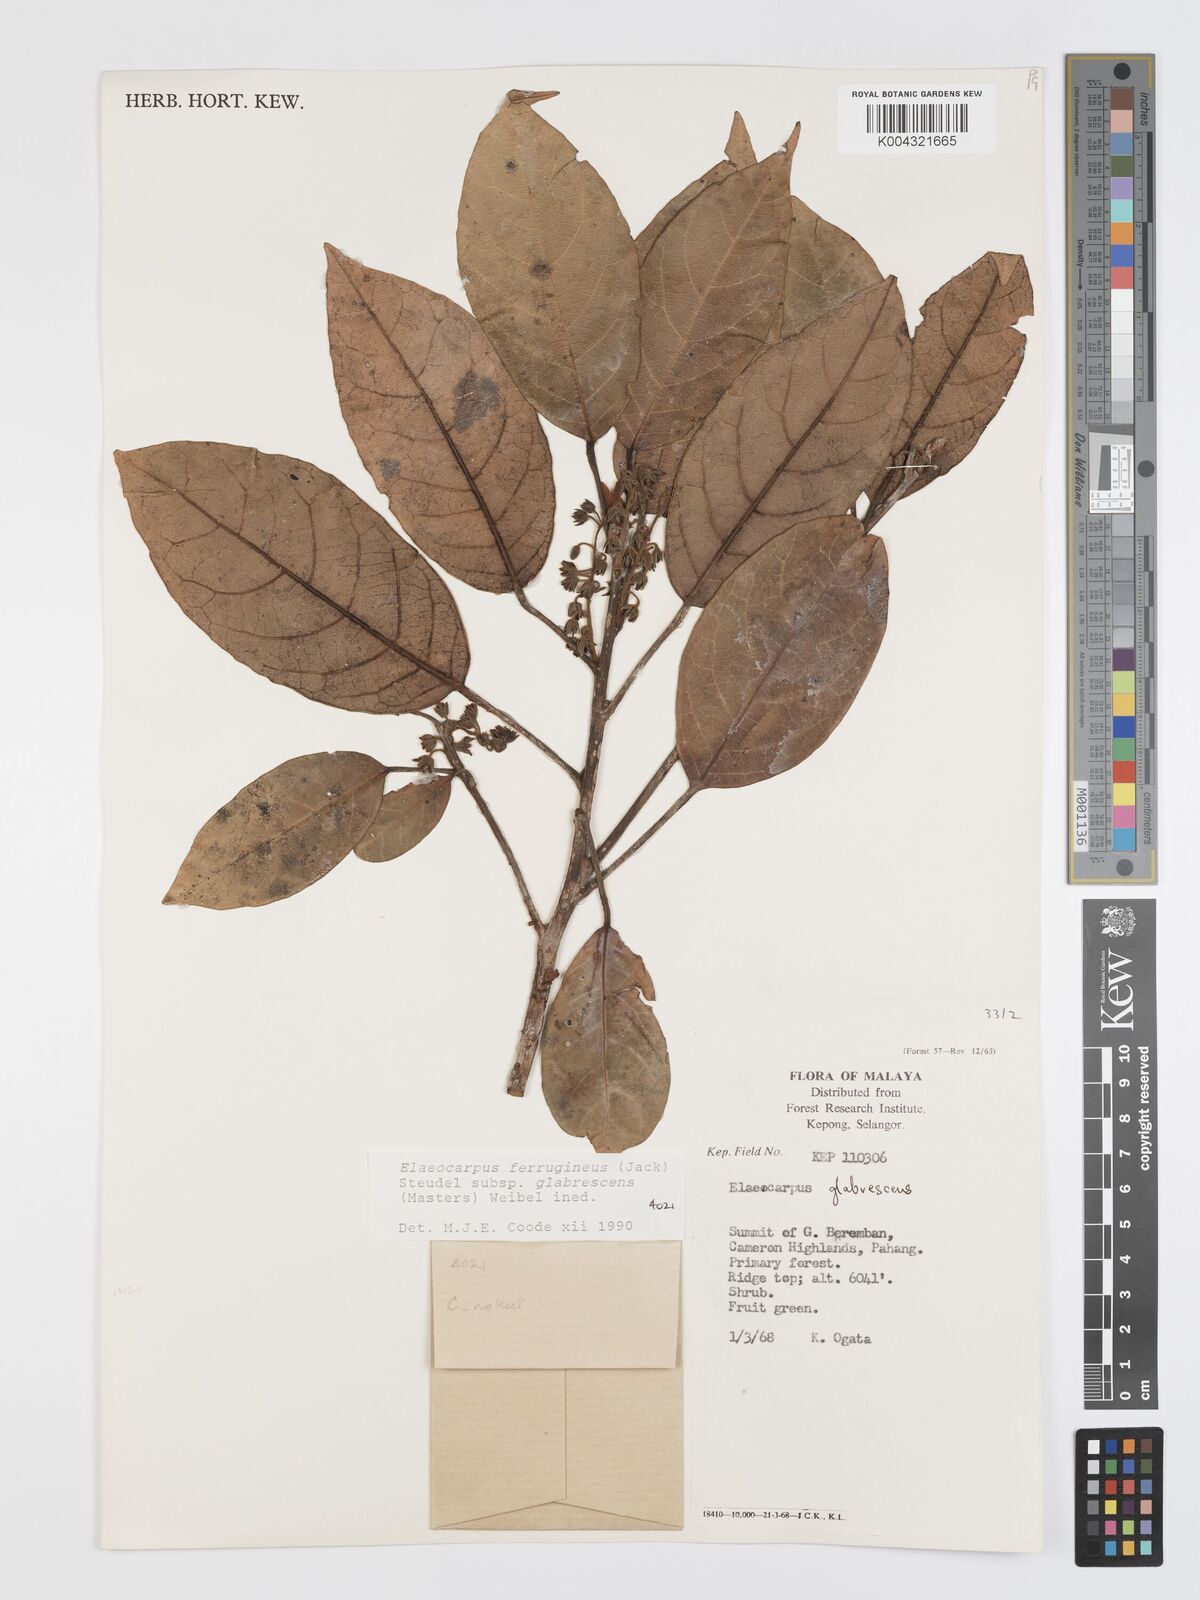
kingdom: Plantae
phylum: Tracheophyta
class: Magnoliopsida
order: Oxalidales
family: Elaeocarpaceae
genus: Elaeocarpus
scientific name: Elaeocarpus ferrugineus
